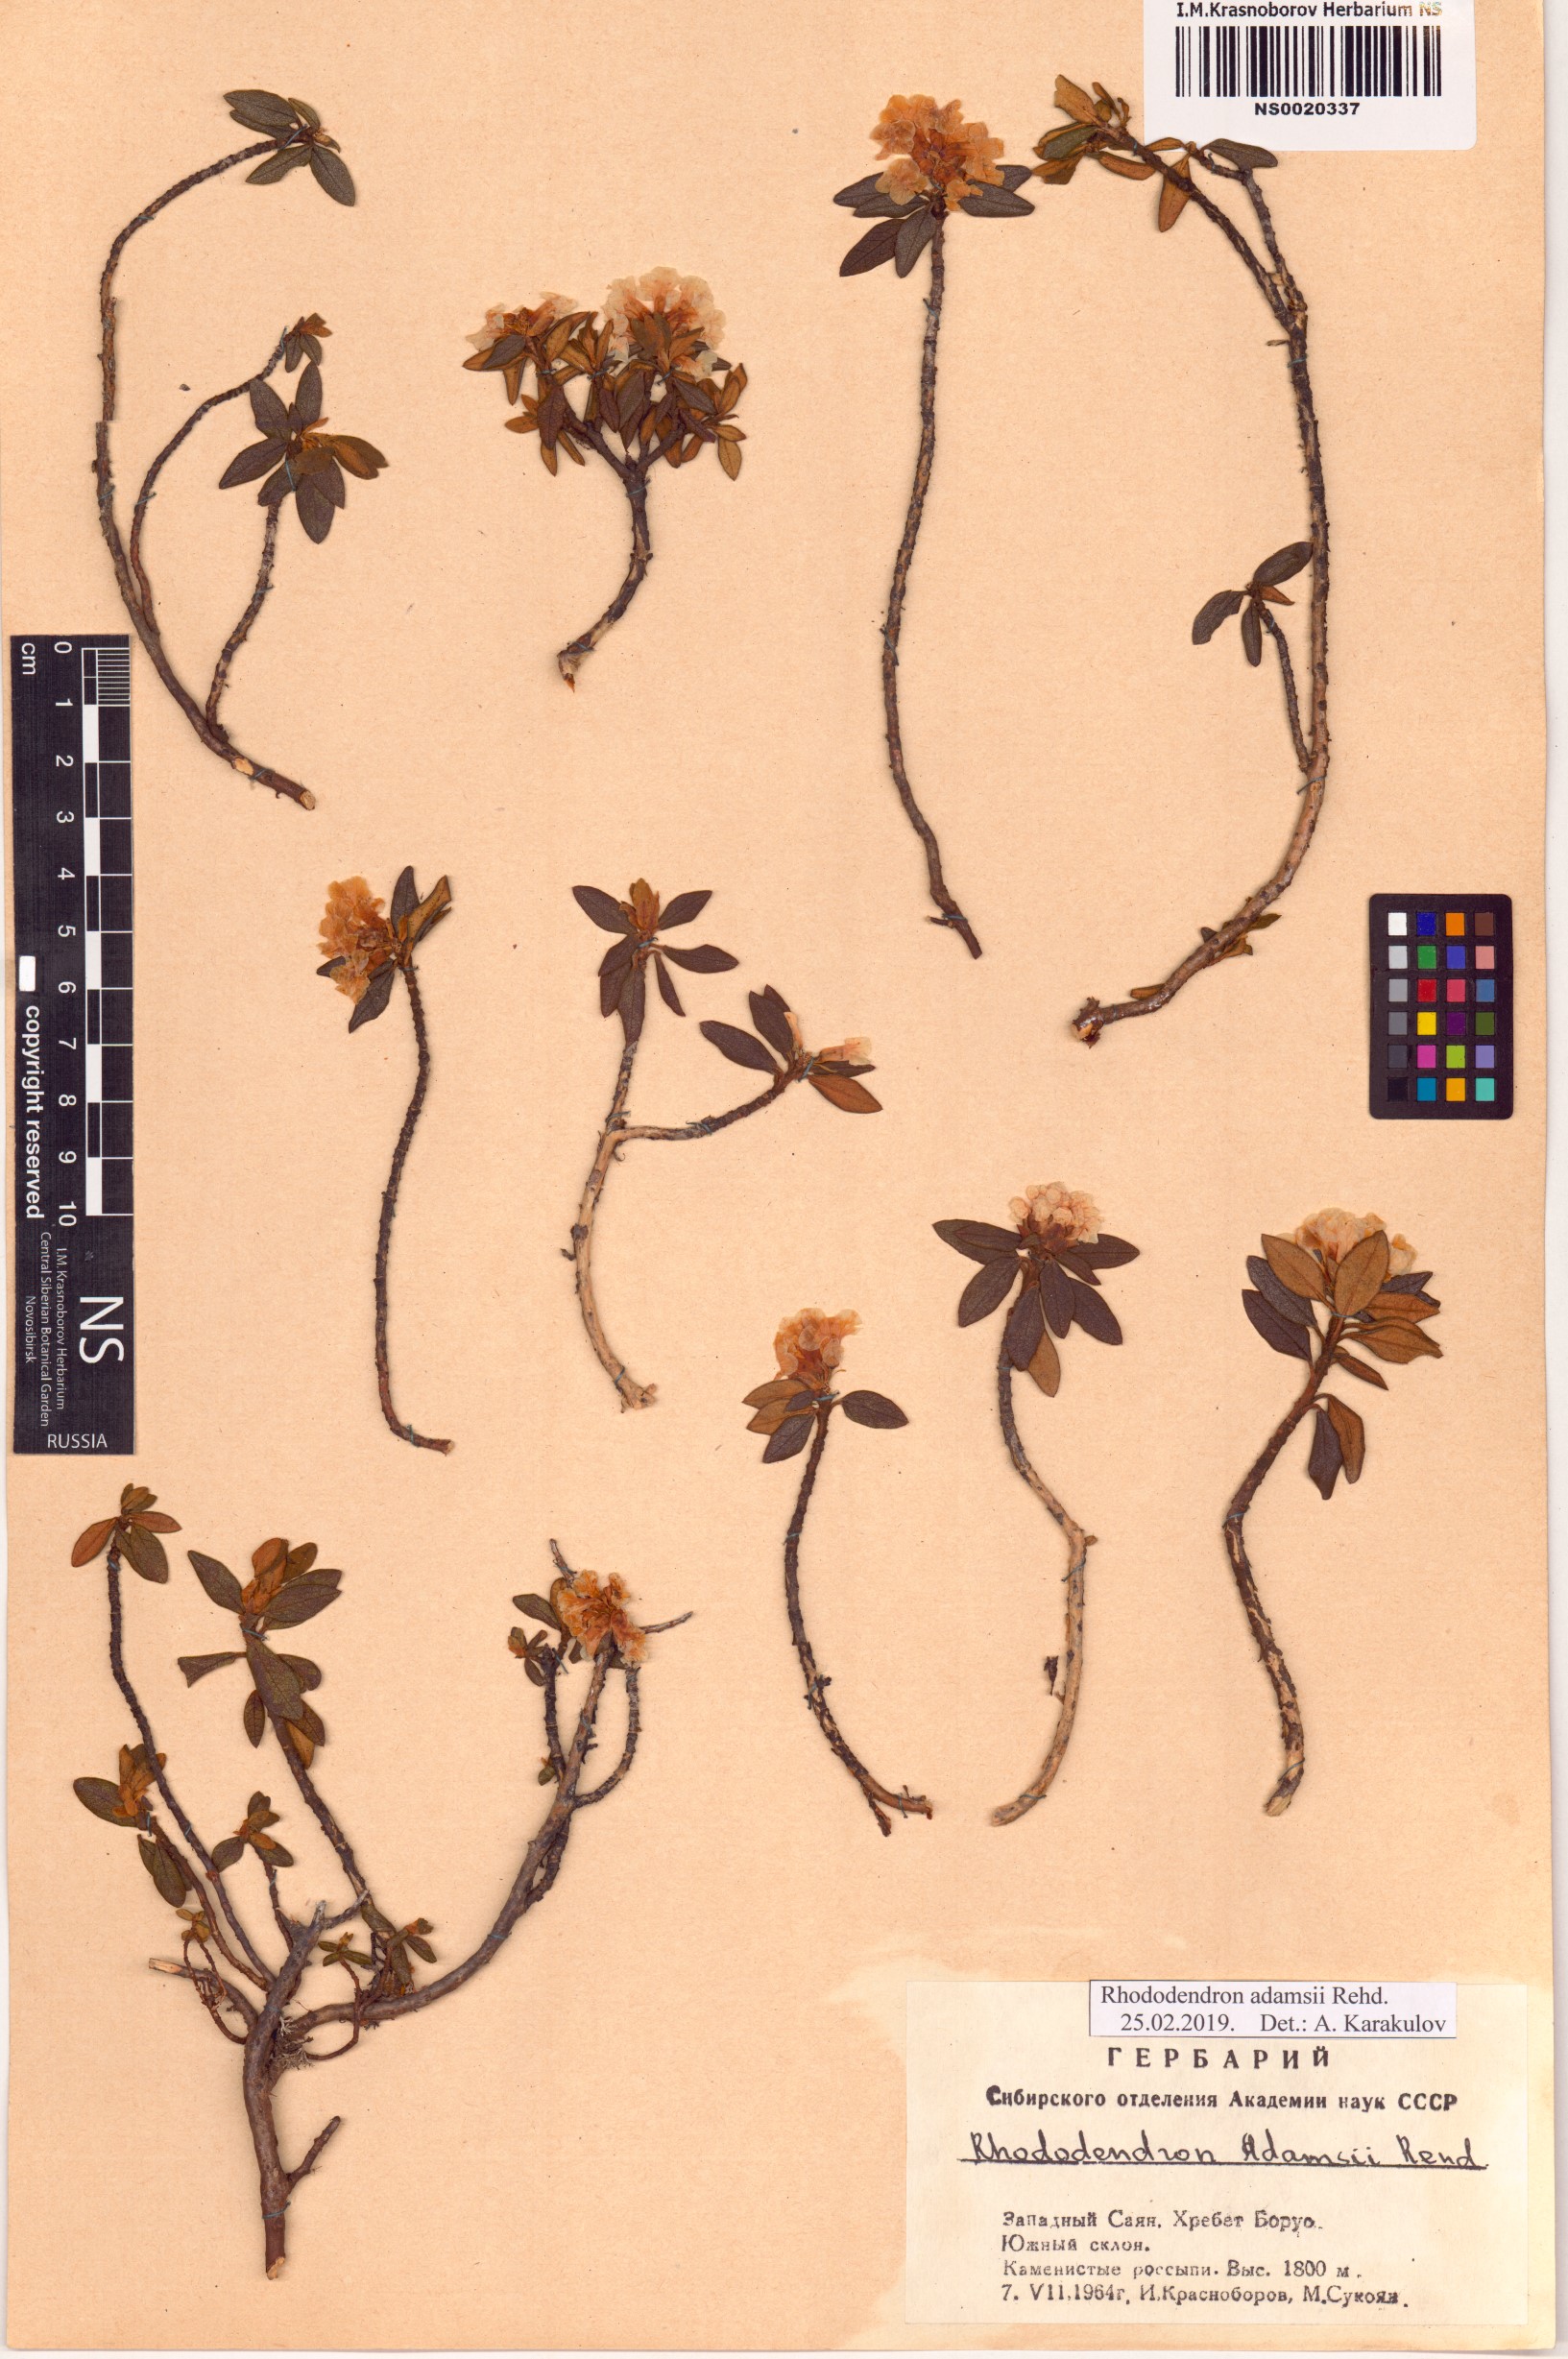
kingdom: Plantae
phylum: Tracheophyta
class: Magnoliopsida
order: Ericales
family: Ericaceae
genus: Rhododendron
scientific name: Rhododendron adamsii
